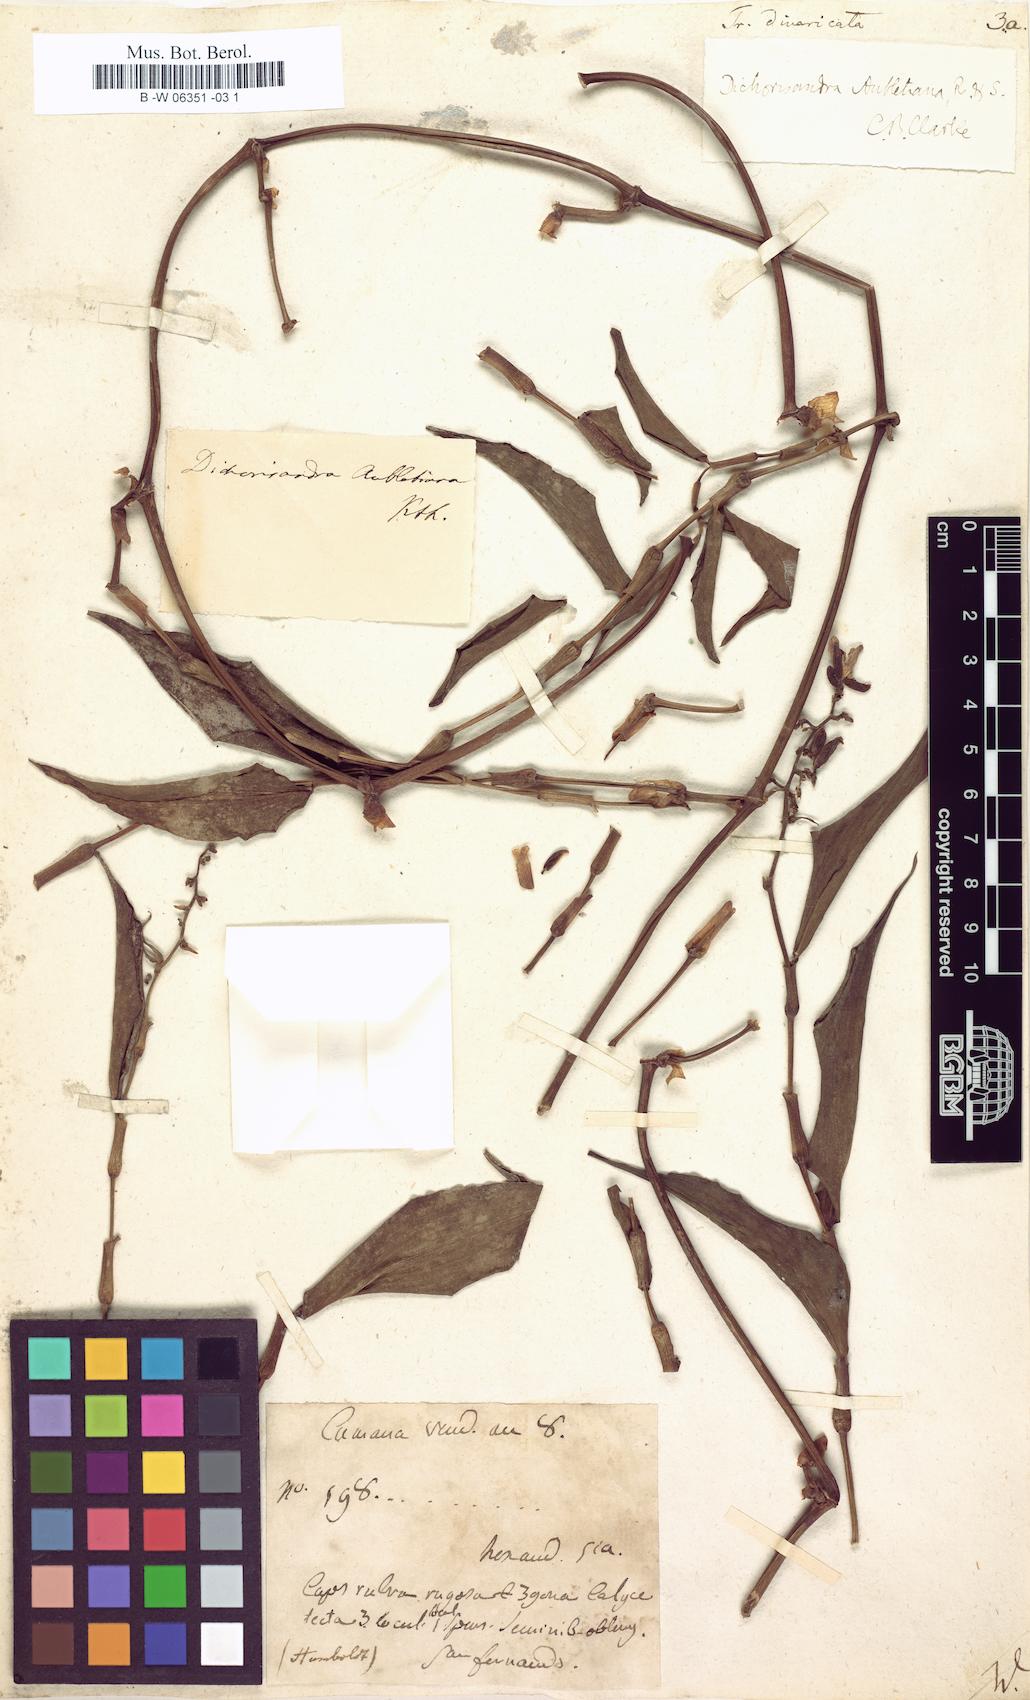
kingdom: Plantae
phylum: Tracheophyta
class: Liliopsida
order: Commelinales
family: Commelinaceae
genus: Dichorisandra
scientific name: Dichorisandra hexandra
